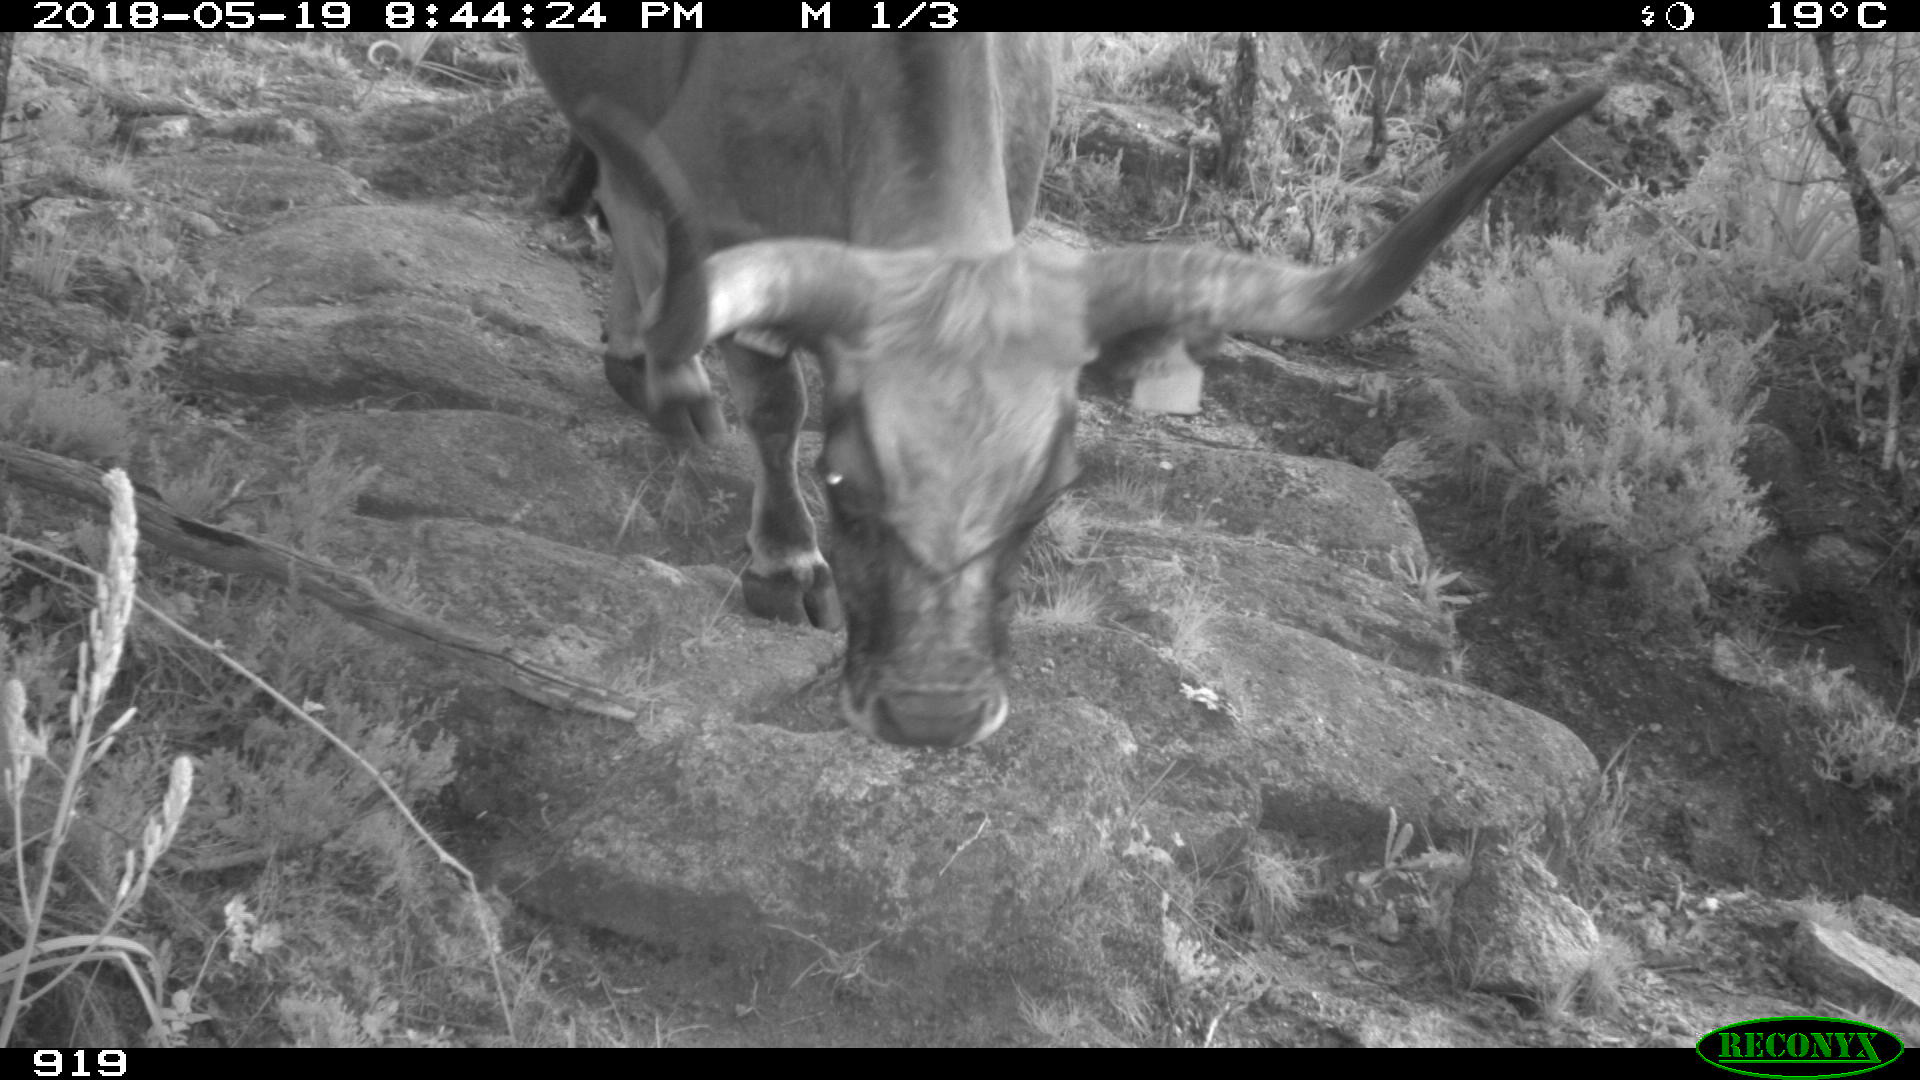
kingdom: Animalia
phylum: Chordata
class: Mammalia
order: Artiodactyla
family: Bovidae
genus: Bos
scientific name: Bos taurus
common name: Domesticated cattle
